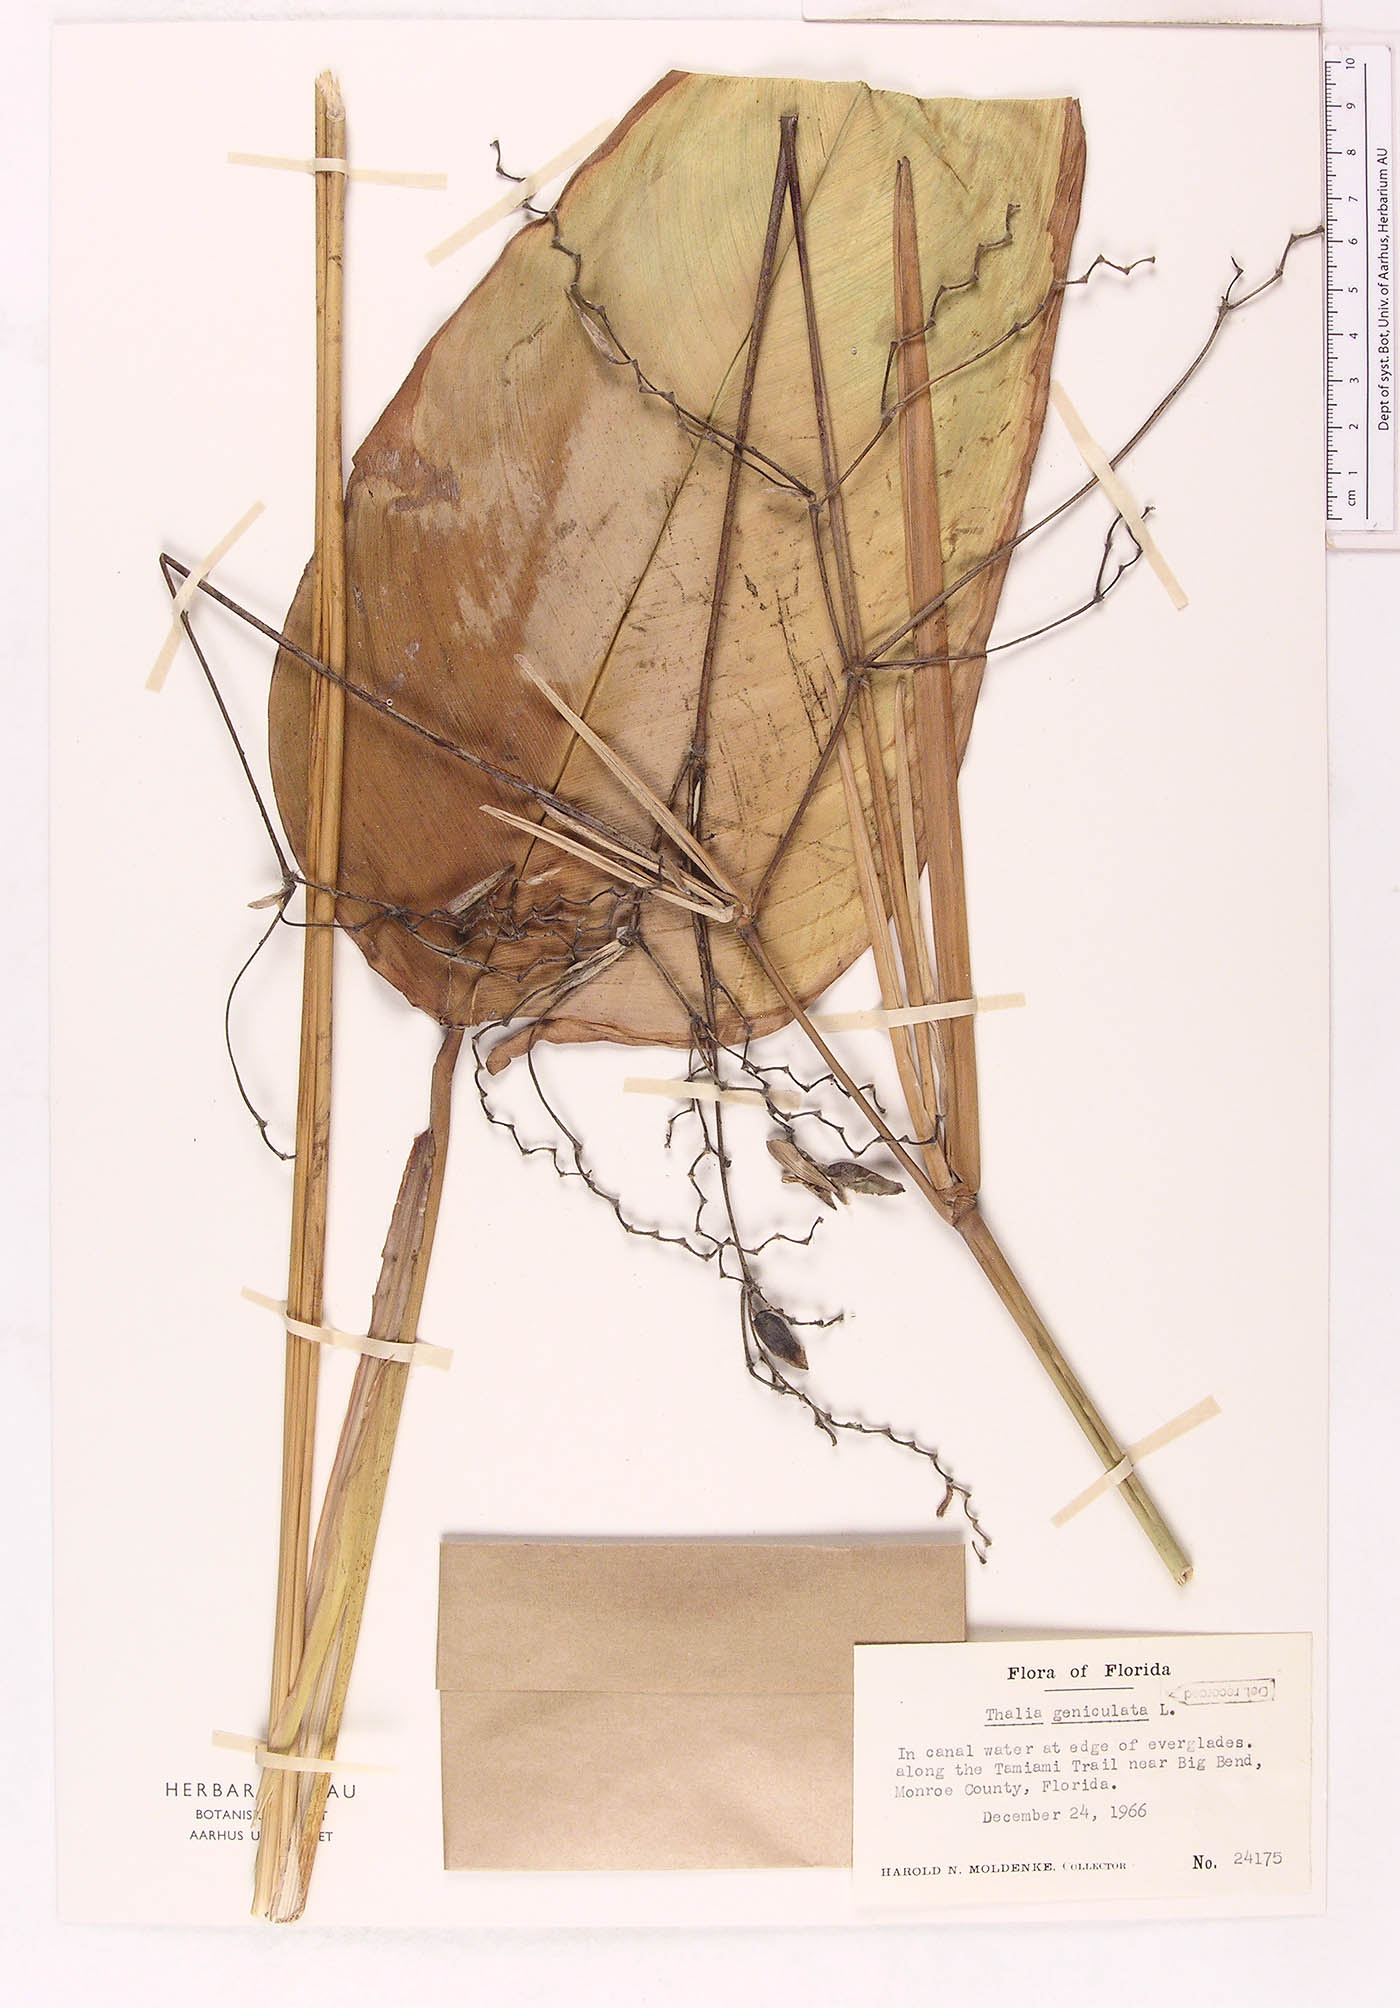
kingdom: Plantae
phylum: Tracheophyta
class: Liliopsida
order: Zingiberales
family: Marantaceae
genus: Thalia
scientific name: Thalia geniculata
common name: Arrowroot
